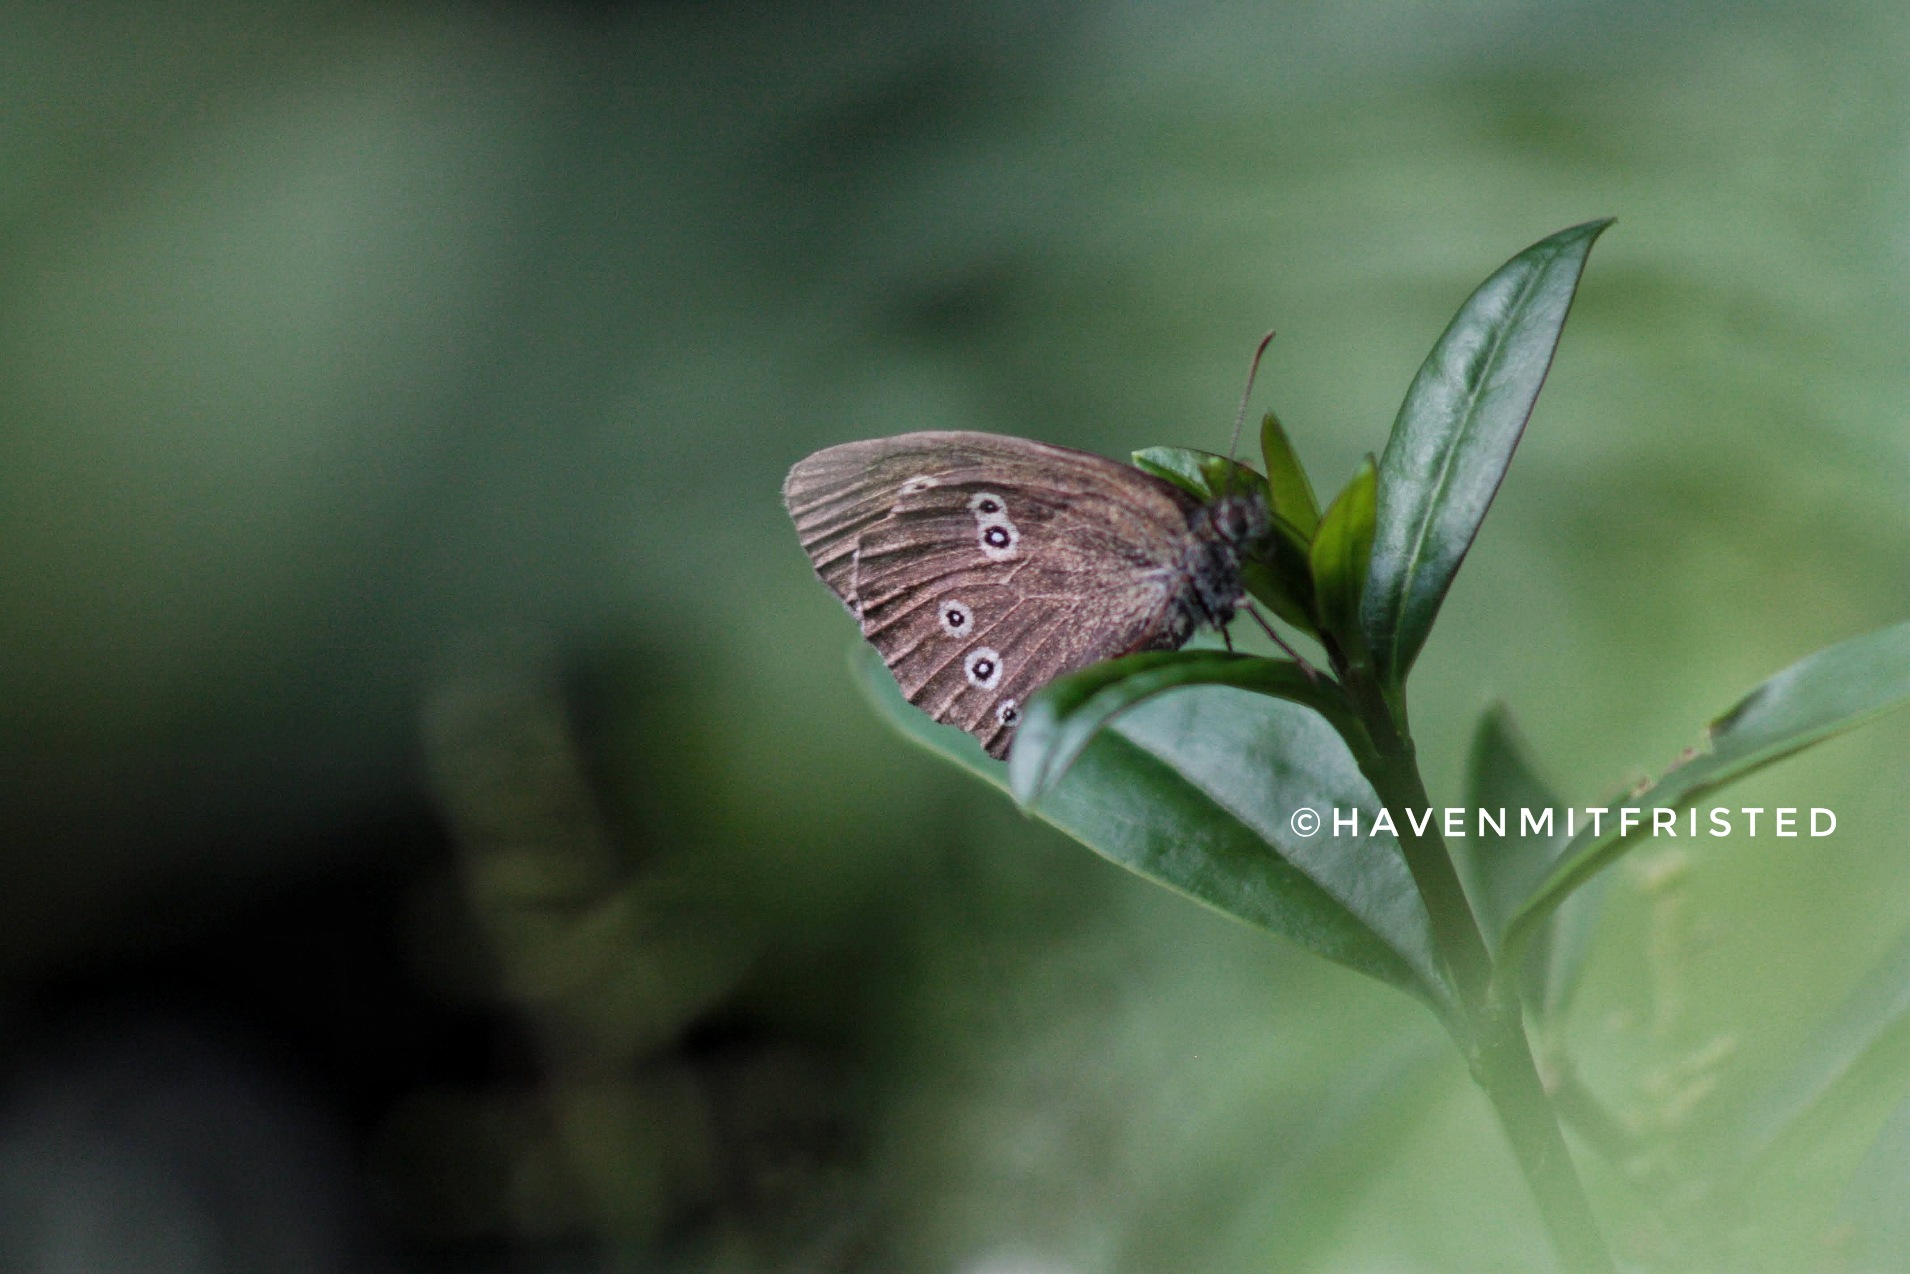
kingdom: Animalia
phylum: Arthropoda
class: Insecta
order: Lepidoptera
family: Nymphalidae
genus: Aphantopus
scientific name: Aphantopus hyperantus
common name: Engrandøje
